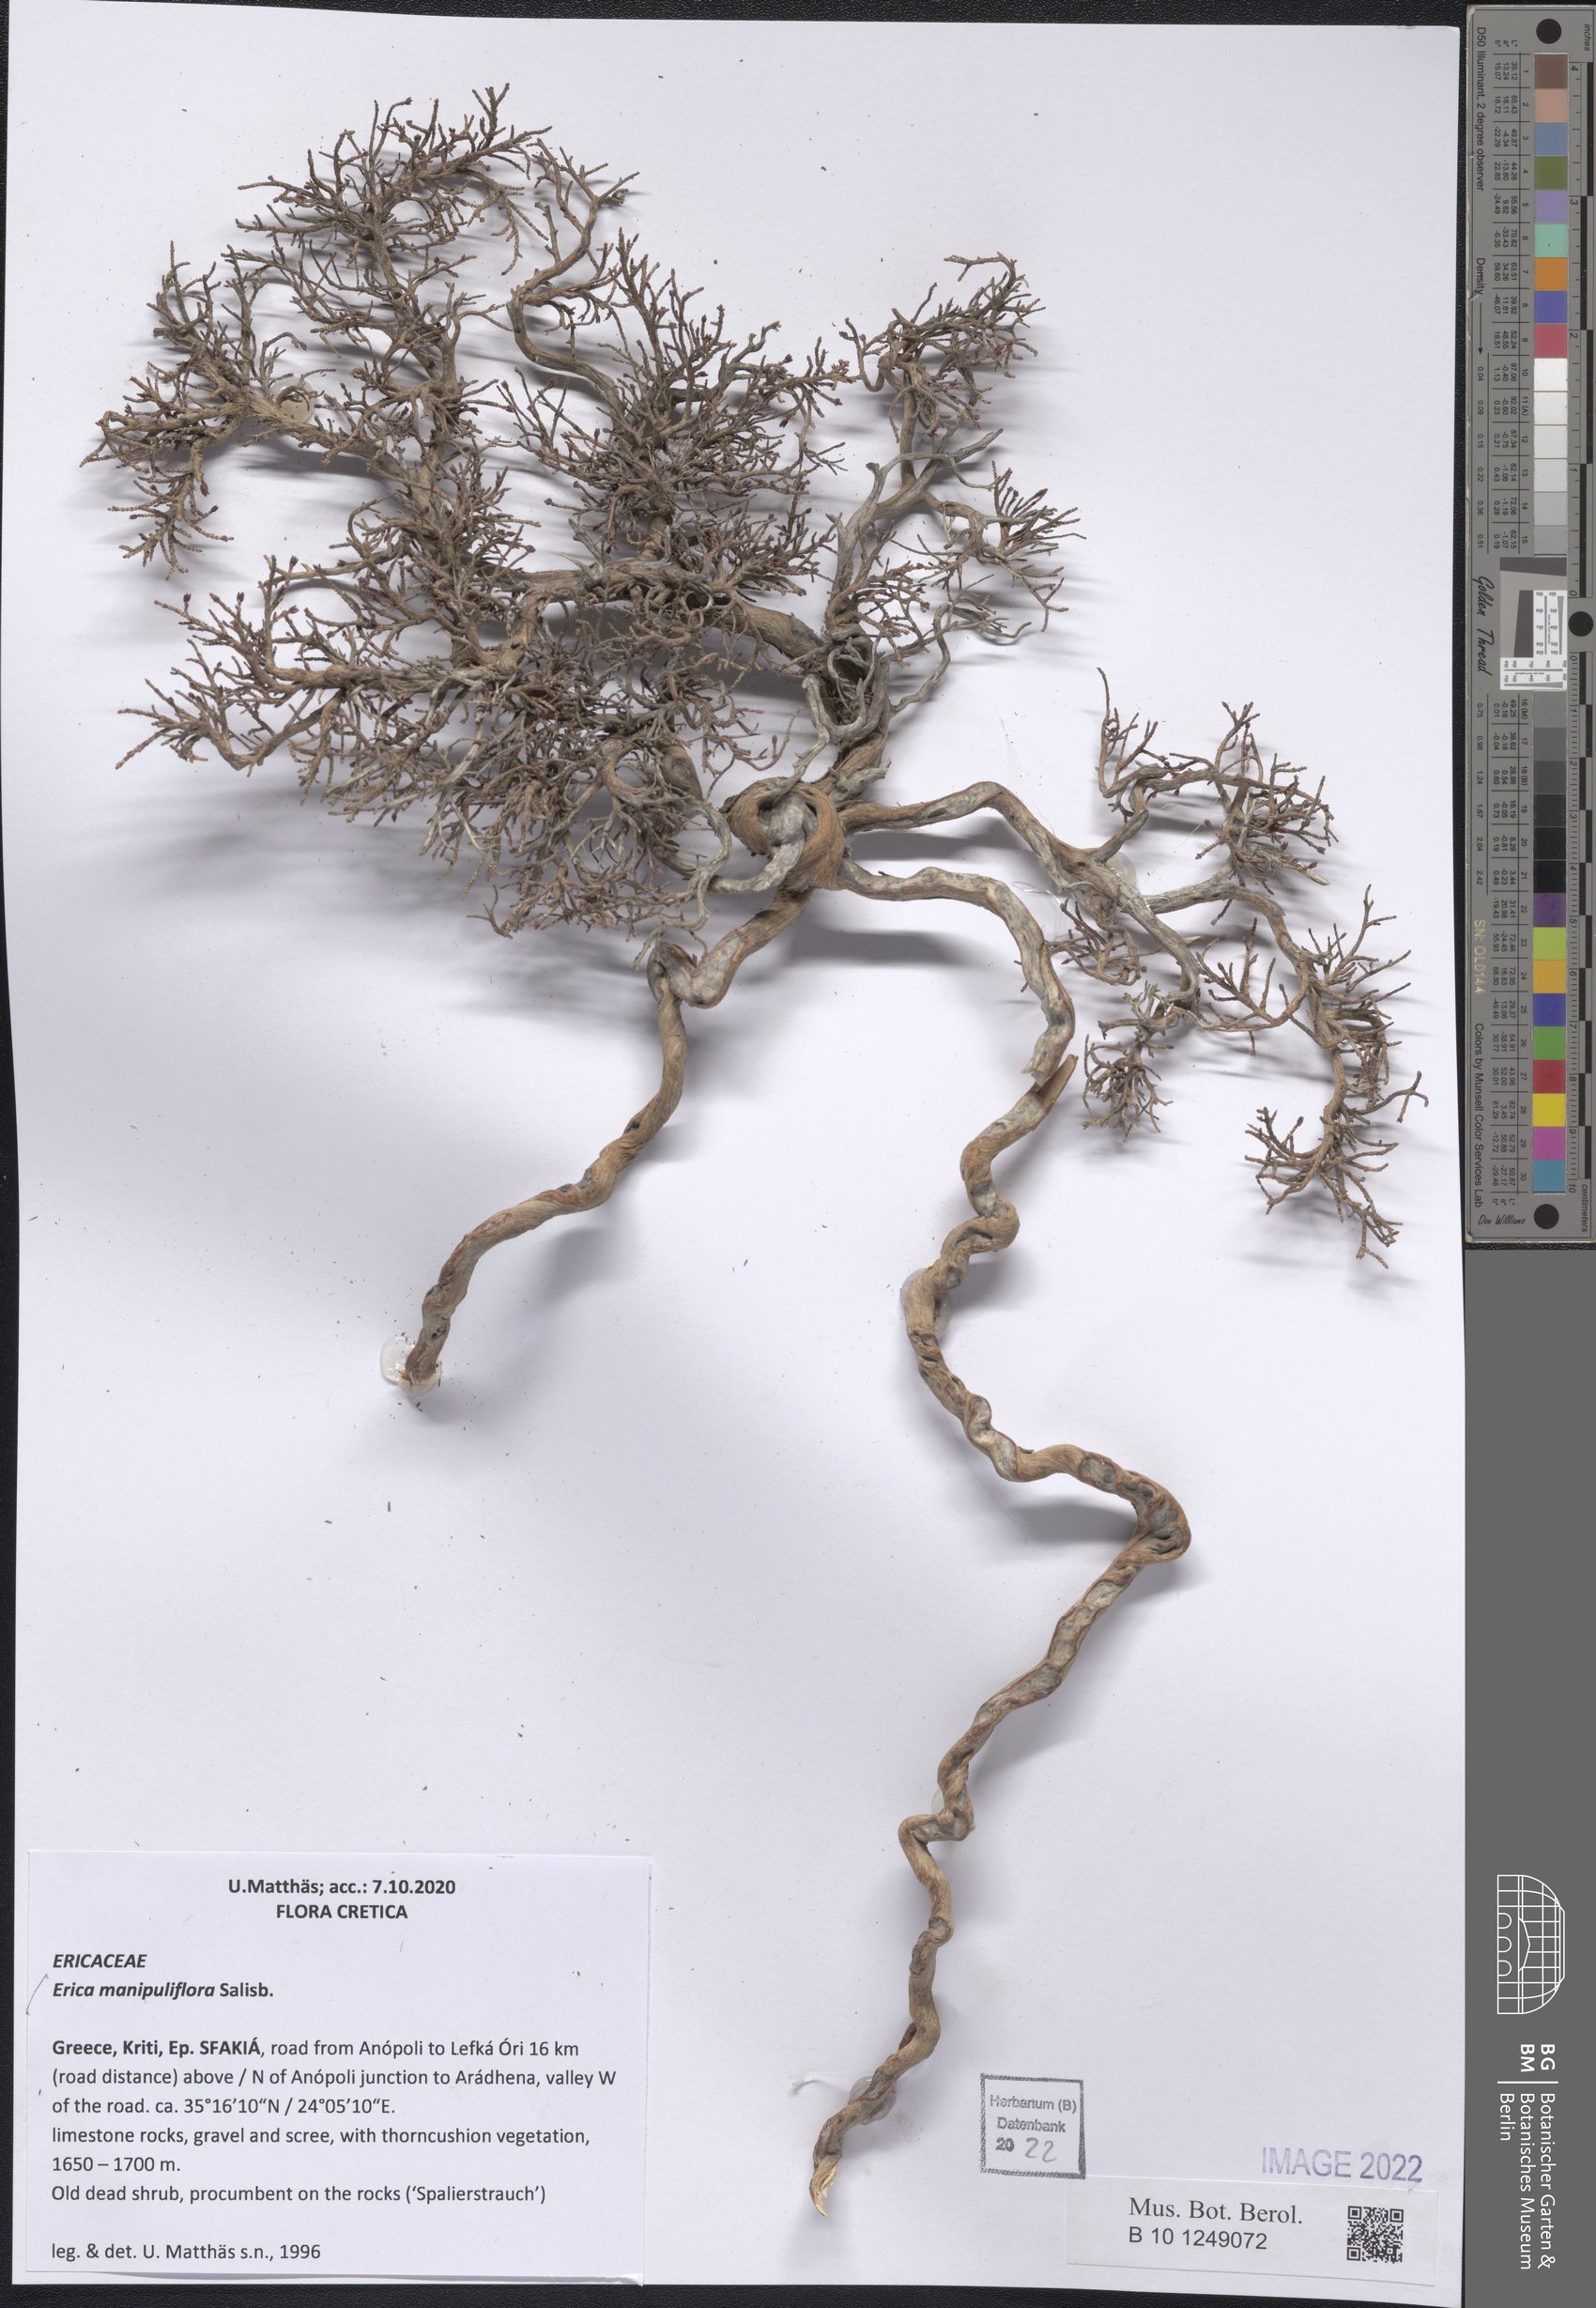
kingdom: Plantae
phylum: Tracheophyta
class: Magnoliopsida
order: Ericales
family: Ericaceae
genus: Erica
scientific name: Erica manipuliflora
